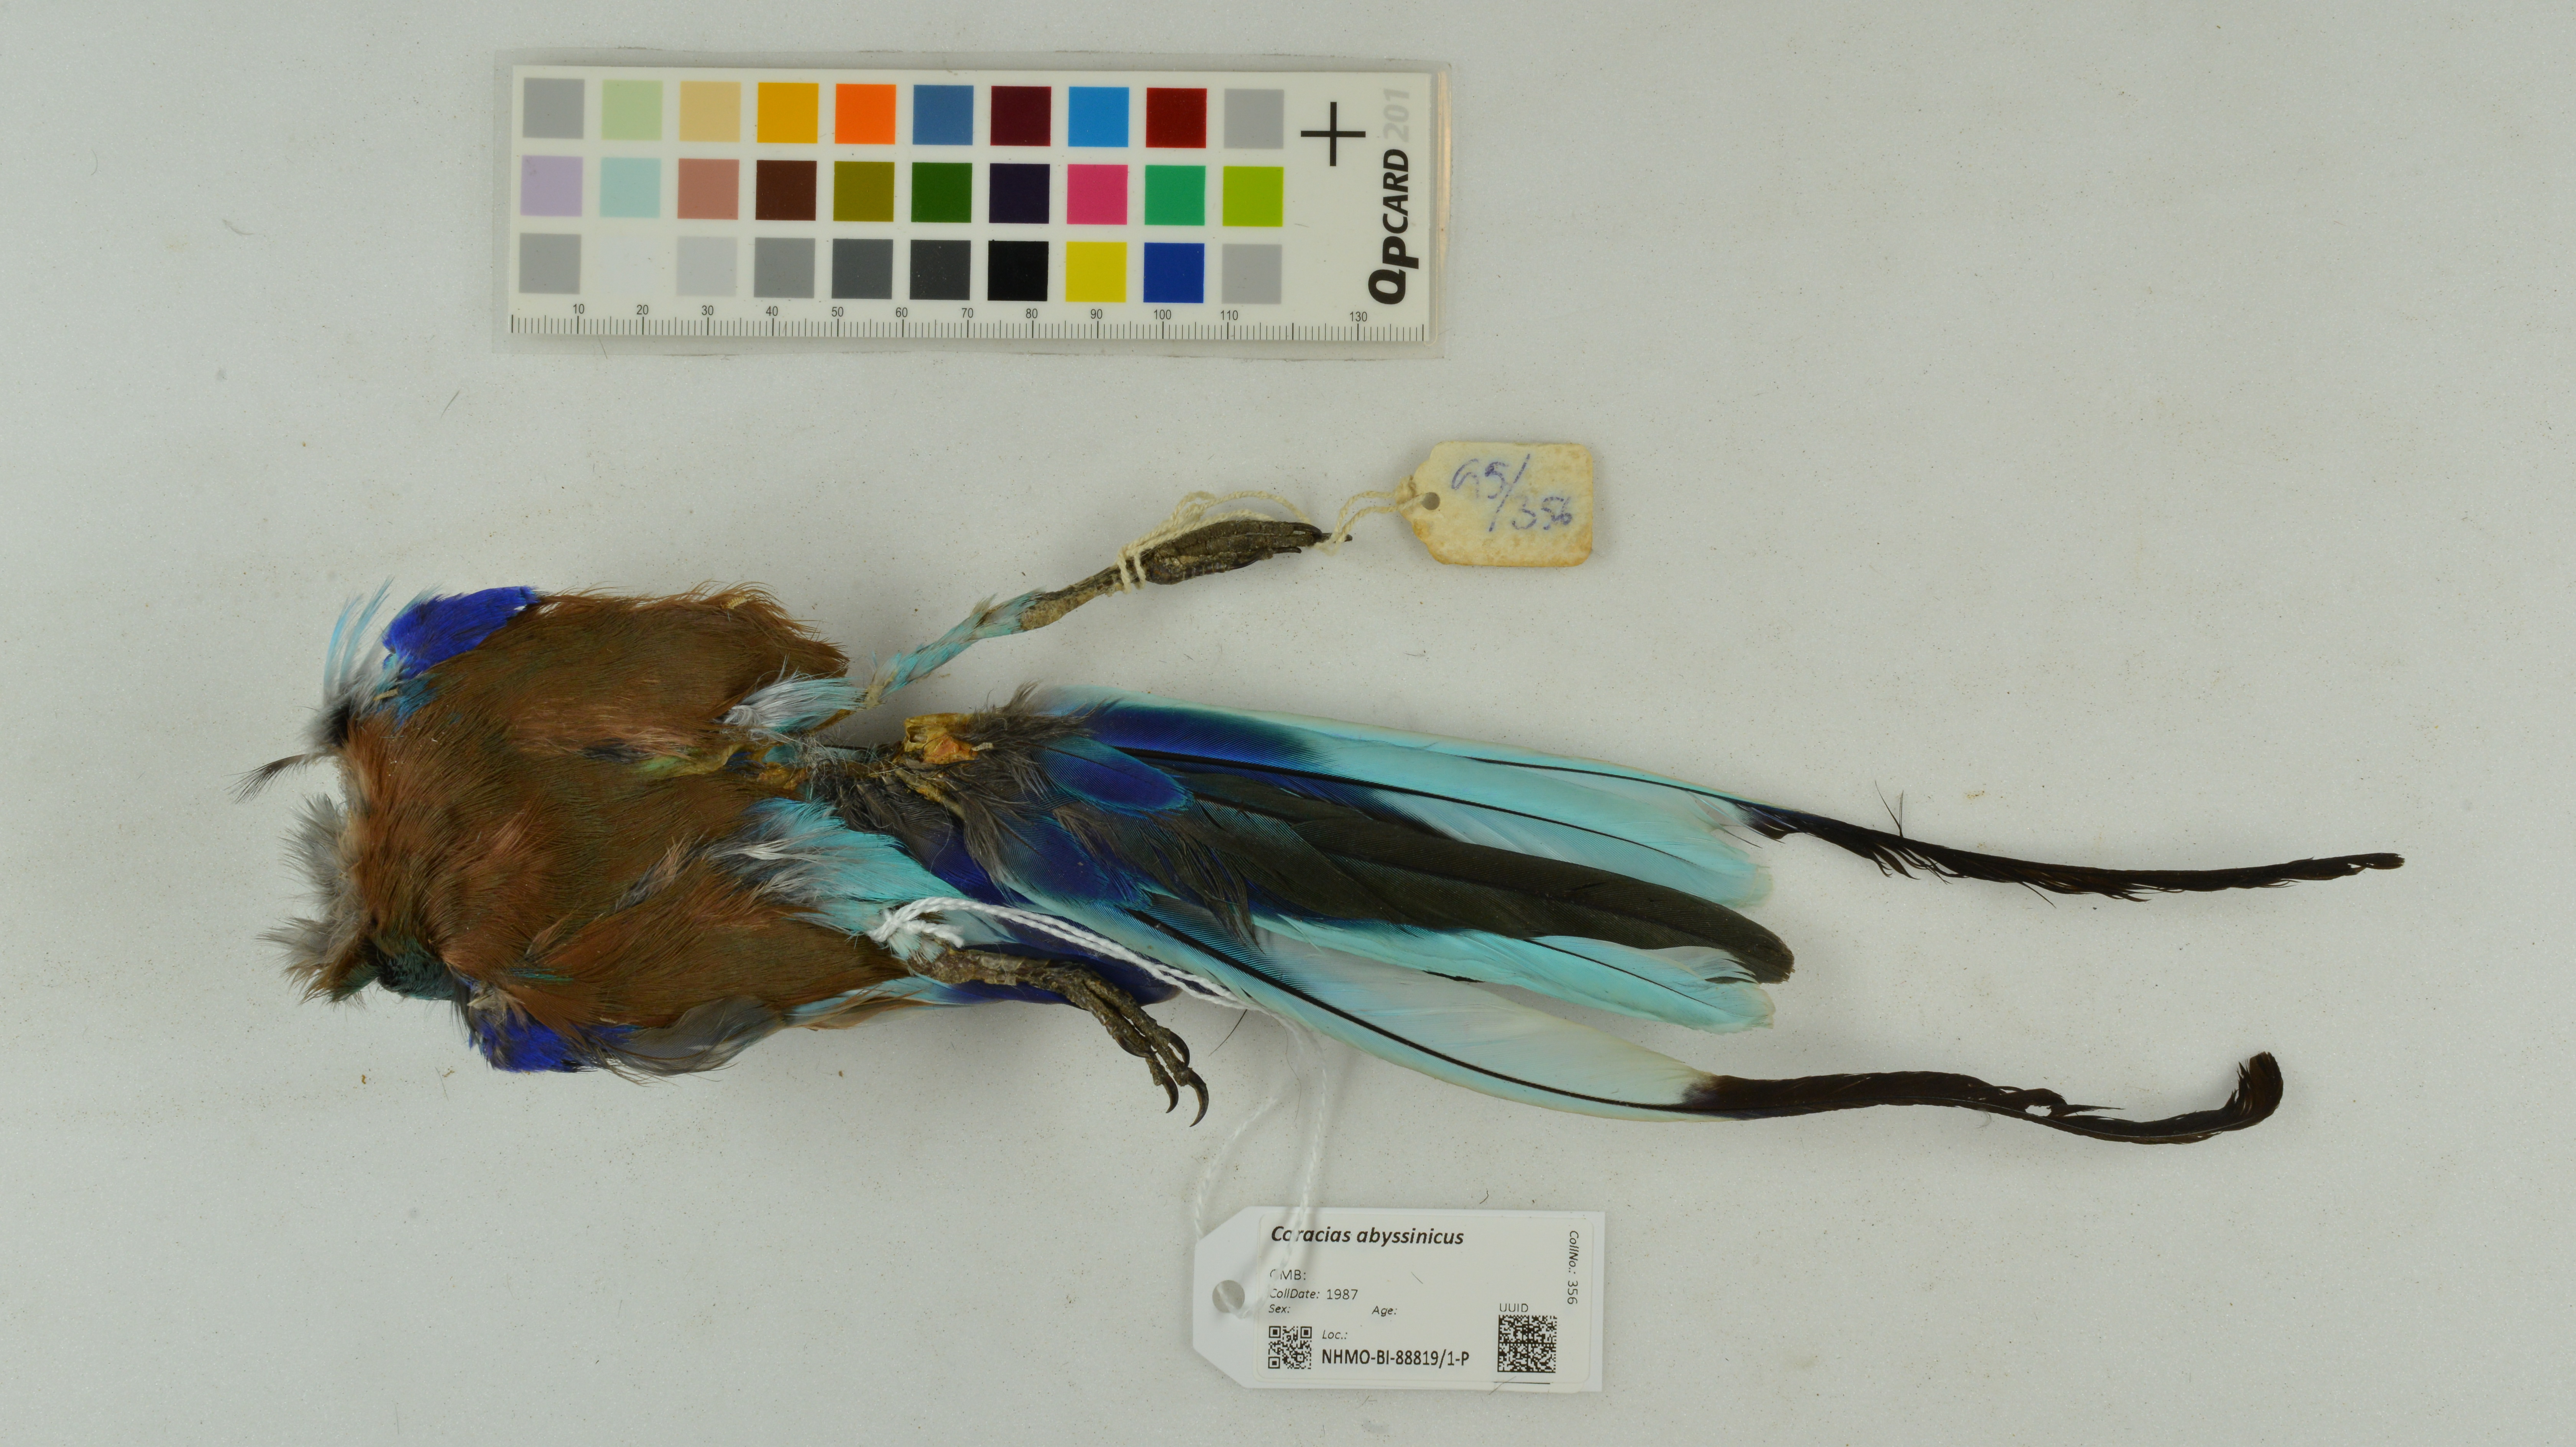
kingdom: Animalia
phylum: Chordata
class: Aves
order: Coraciiformes
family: Coraciidae
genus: Coracias
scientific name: Coracias abyssinicus
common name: Abyssinian roller
